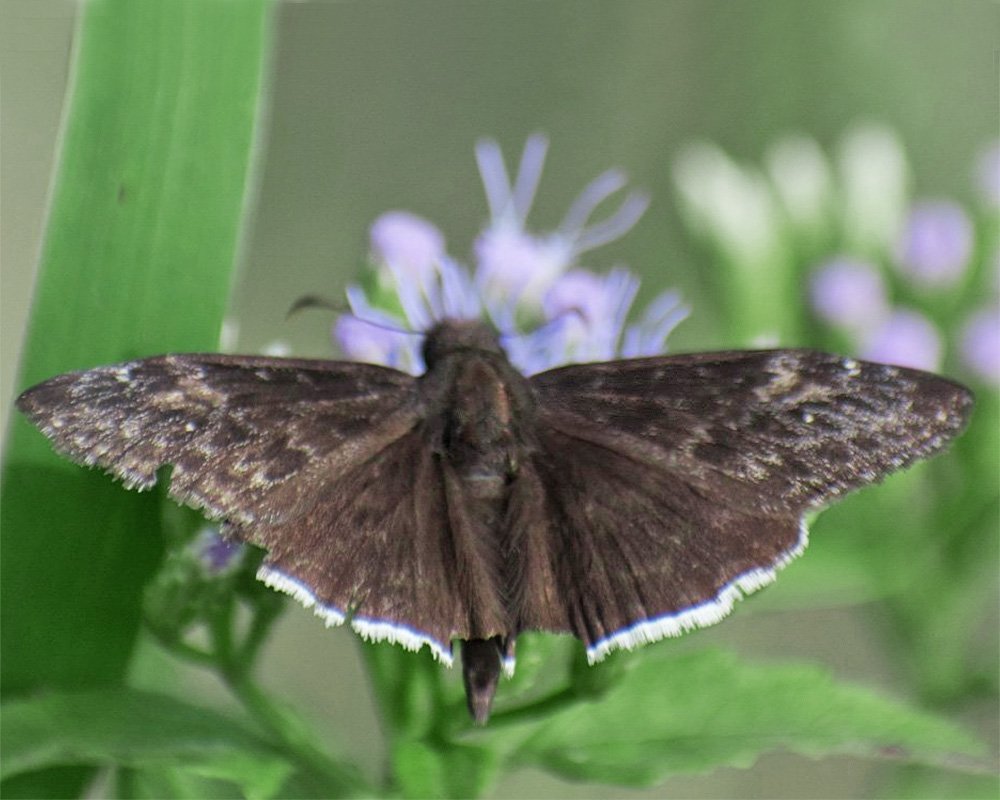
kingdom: Animalia
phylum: Arthropoda
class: Insecta
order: Lepidoptera
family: Hesperiidae
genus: Erynnis
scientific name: Erynnis funeralis
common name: Funereal Duskywing
